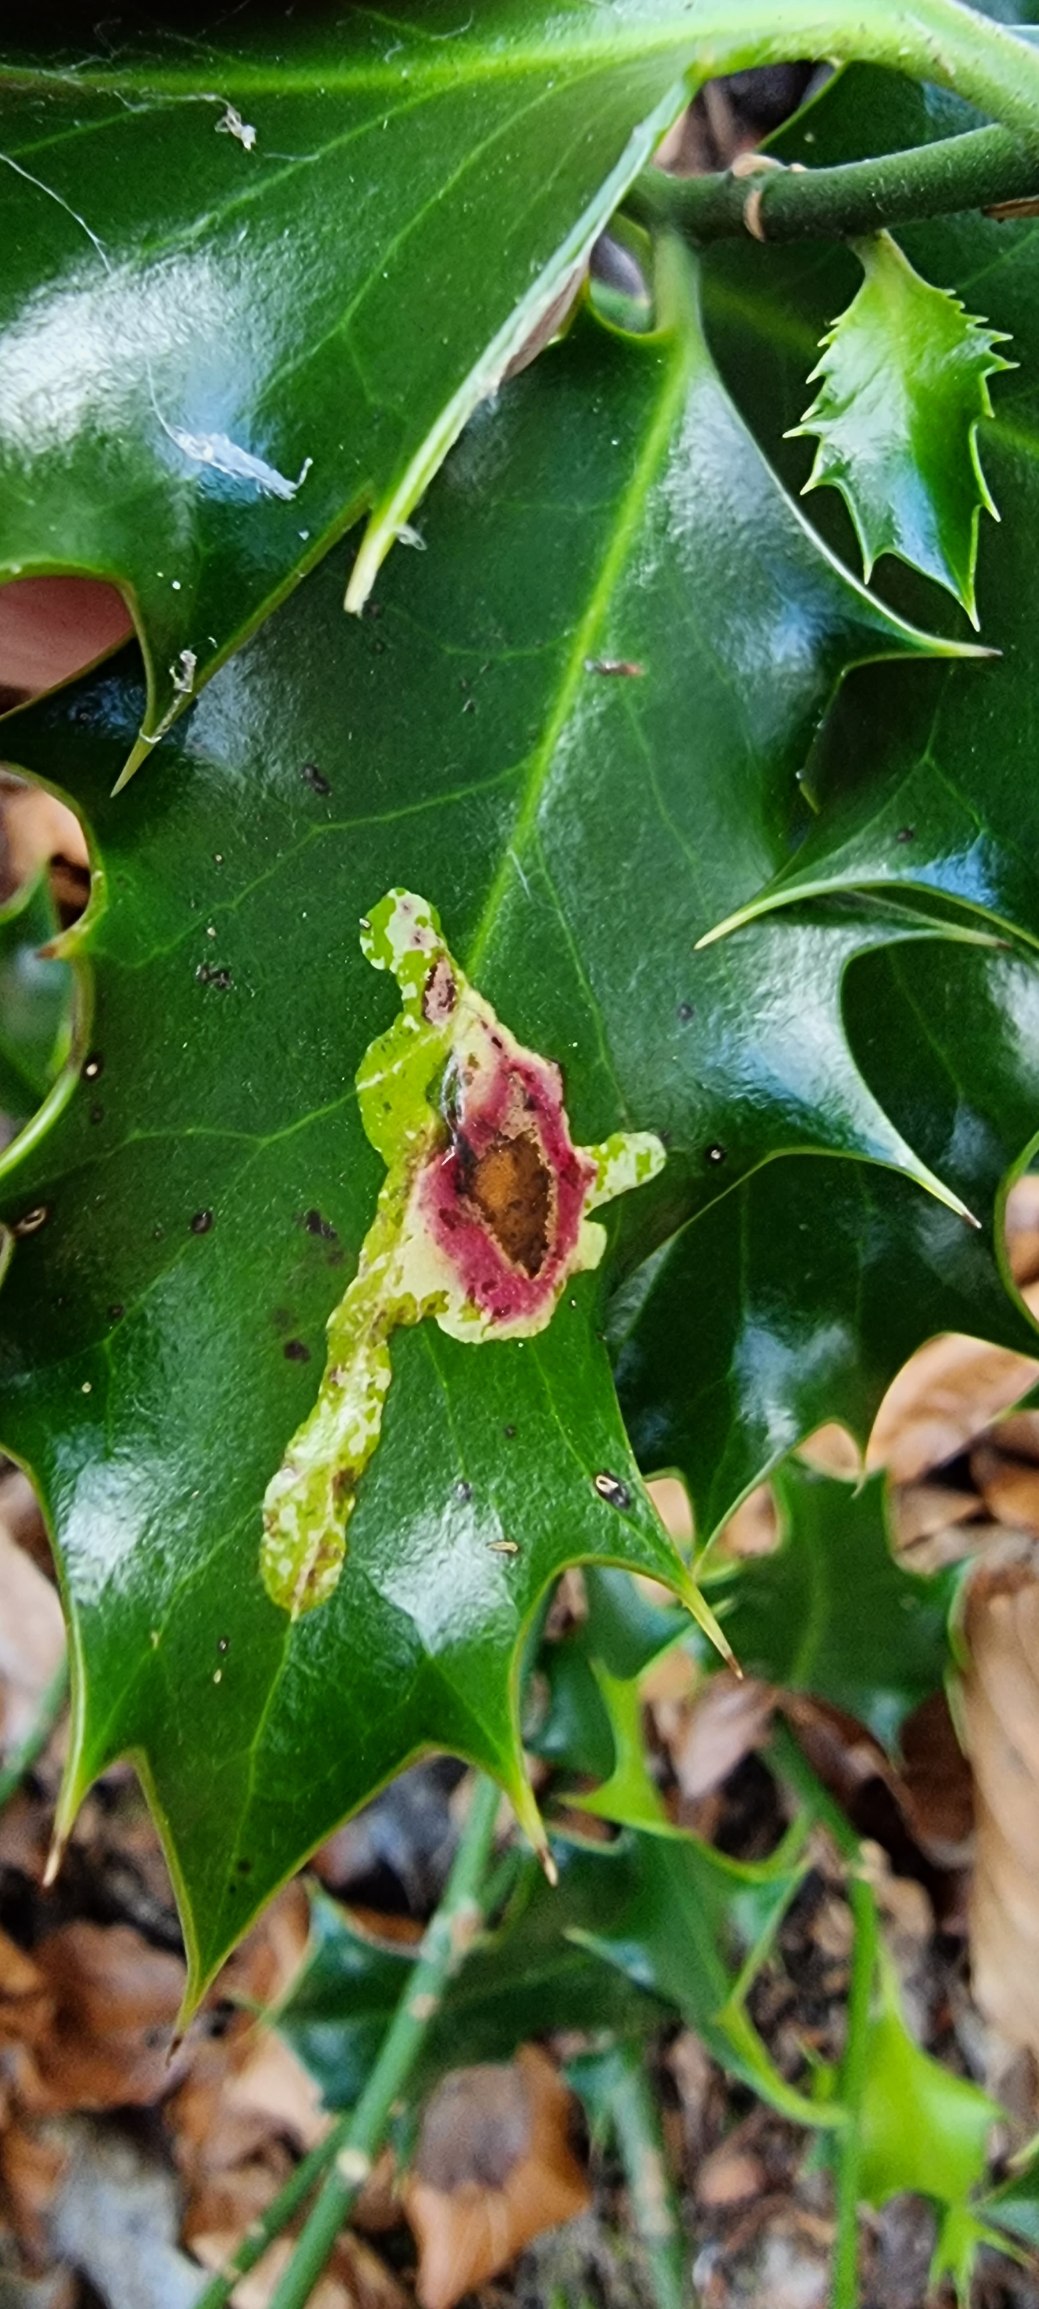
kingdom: Animalia
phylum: Arthropoda
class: Insecta
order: Diptera
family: Agromyzidae
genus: Phytomyza
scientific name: Phytomyza ilicis
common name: Kristtornminérflue
